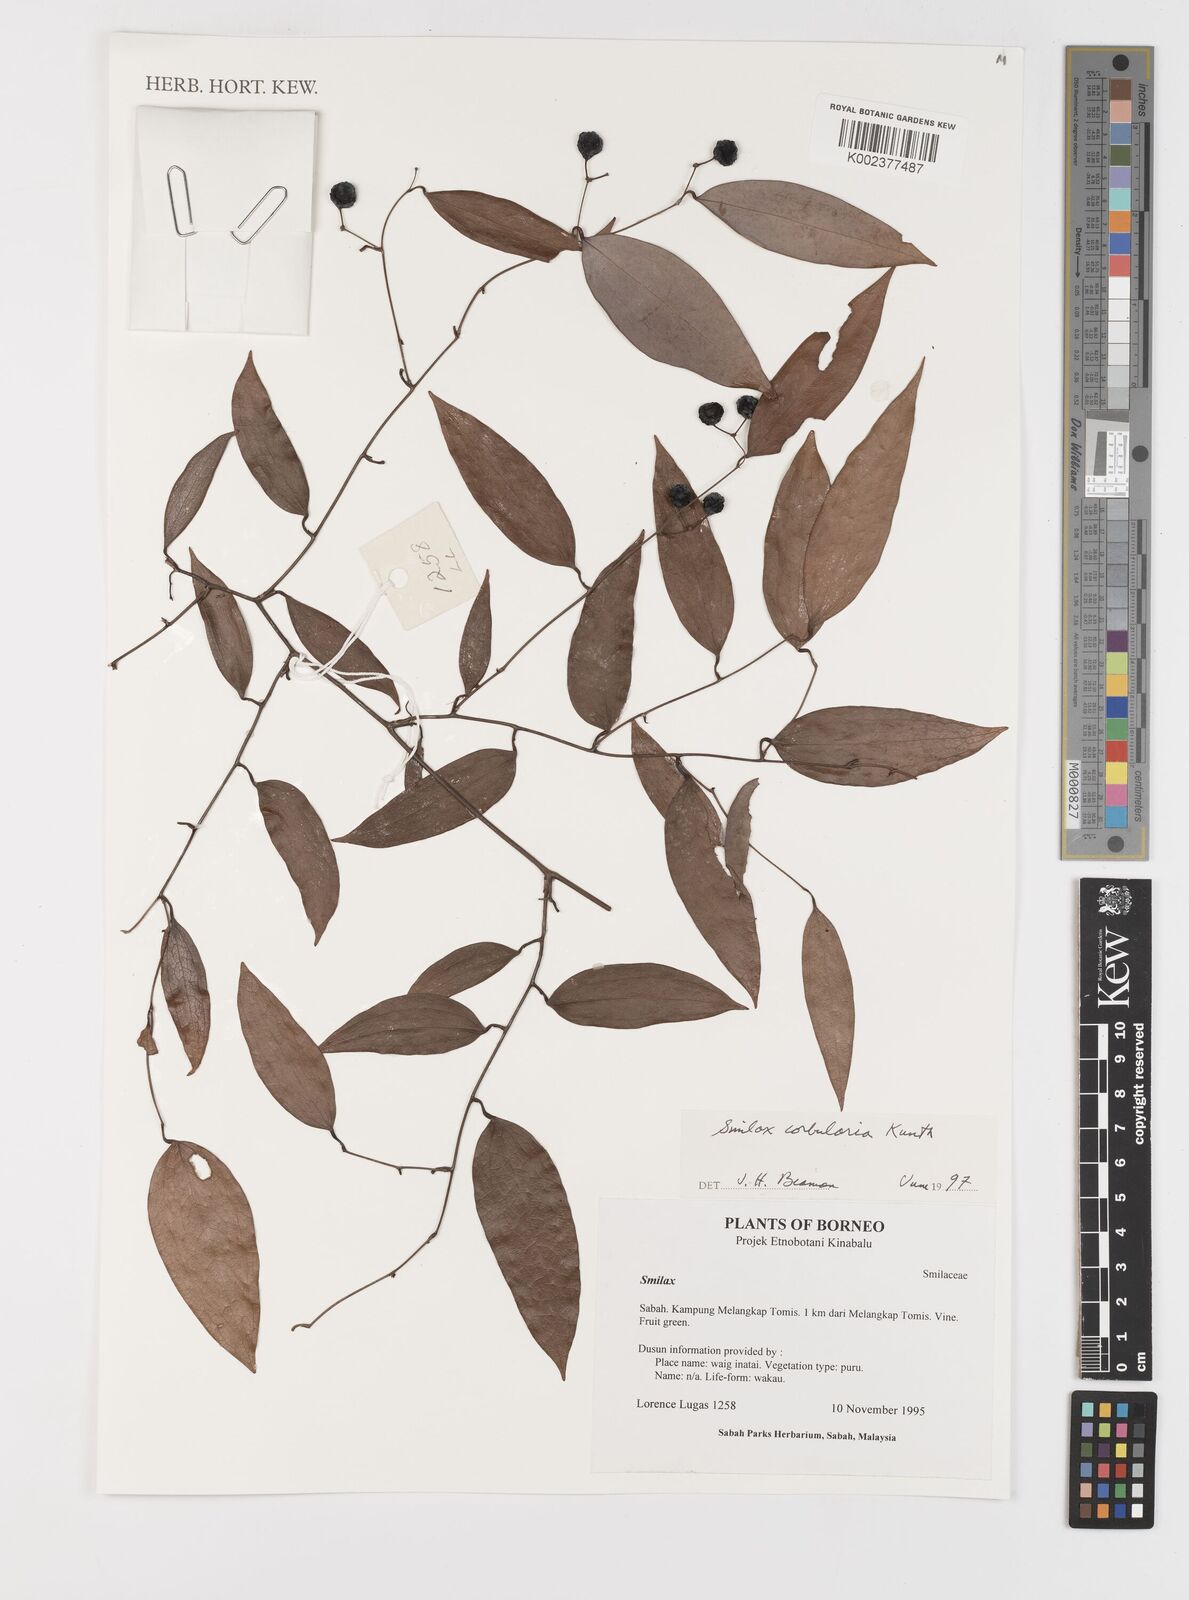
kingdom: Plantae
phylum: Tracheophyta
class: Liliopsida
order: Liliales
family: Smilacaceae
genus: Smilax
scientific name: Smilax corbularia
